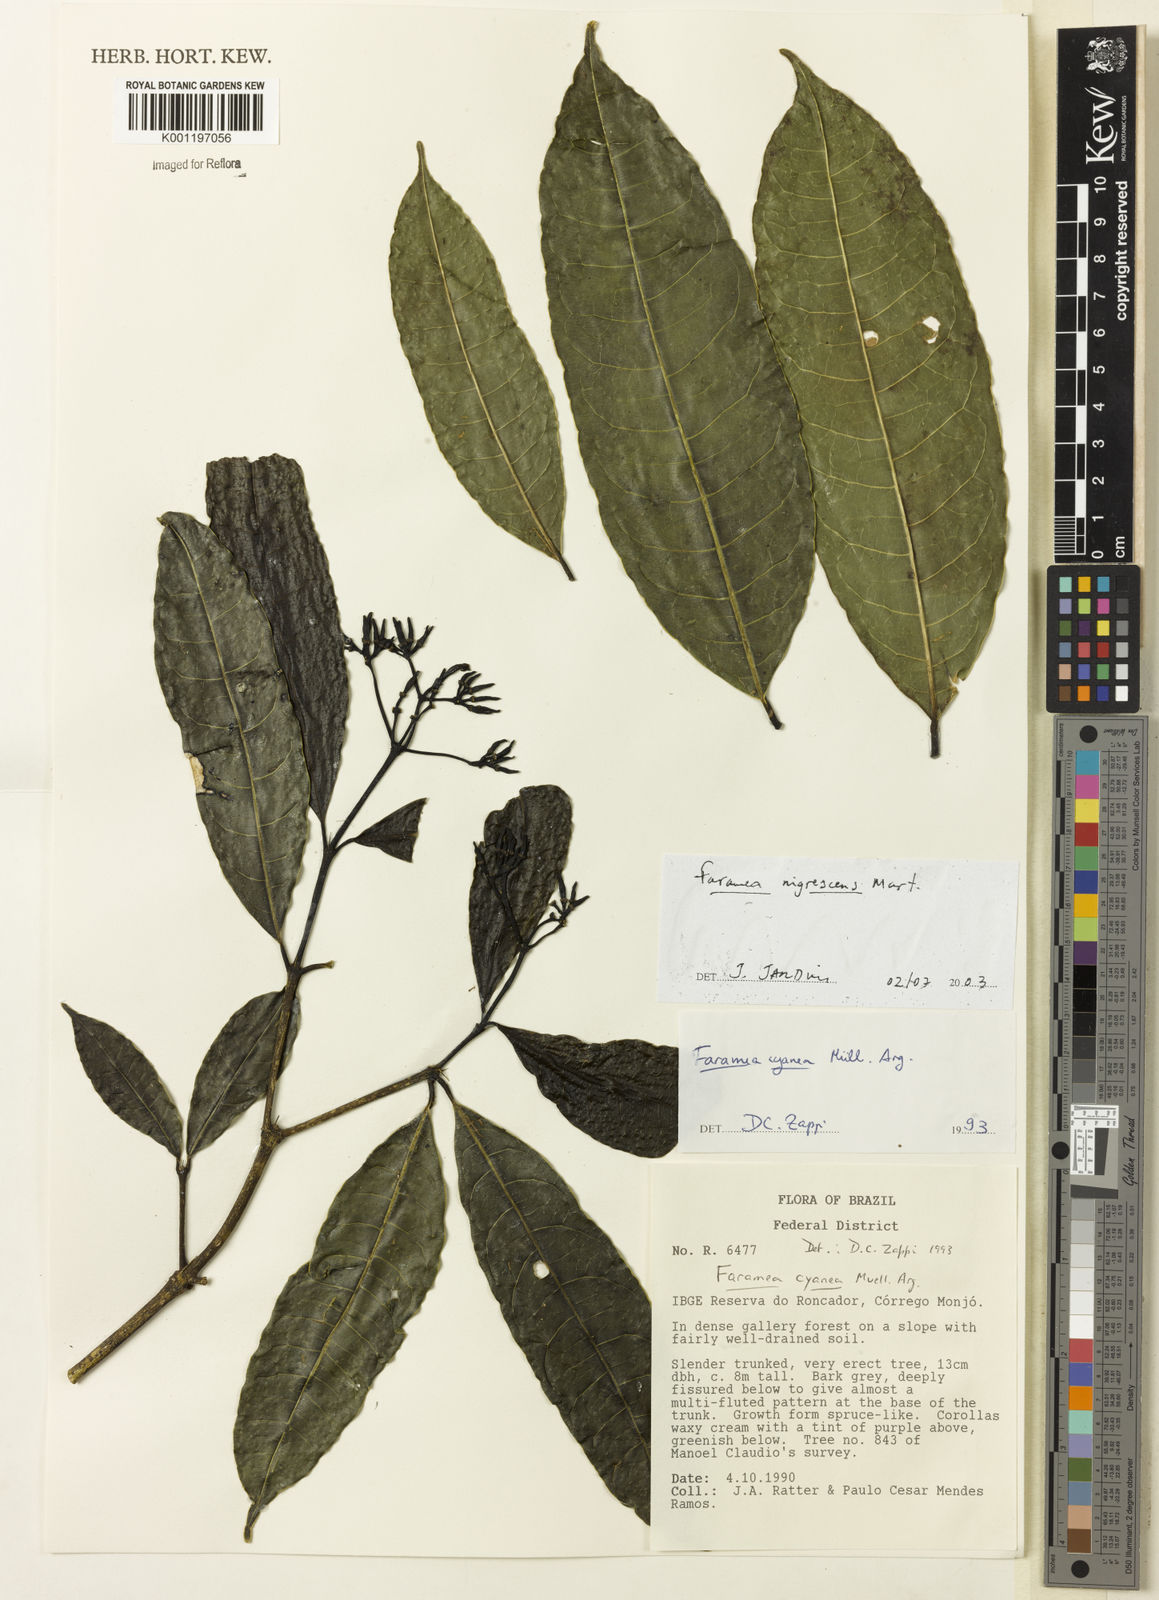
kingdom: Plantae
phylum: Tracheophyta
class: Magnoliopsida
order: Gentianales
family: Rubiaceae
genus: Faramea
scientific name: Faramea nigrescens
